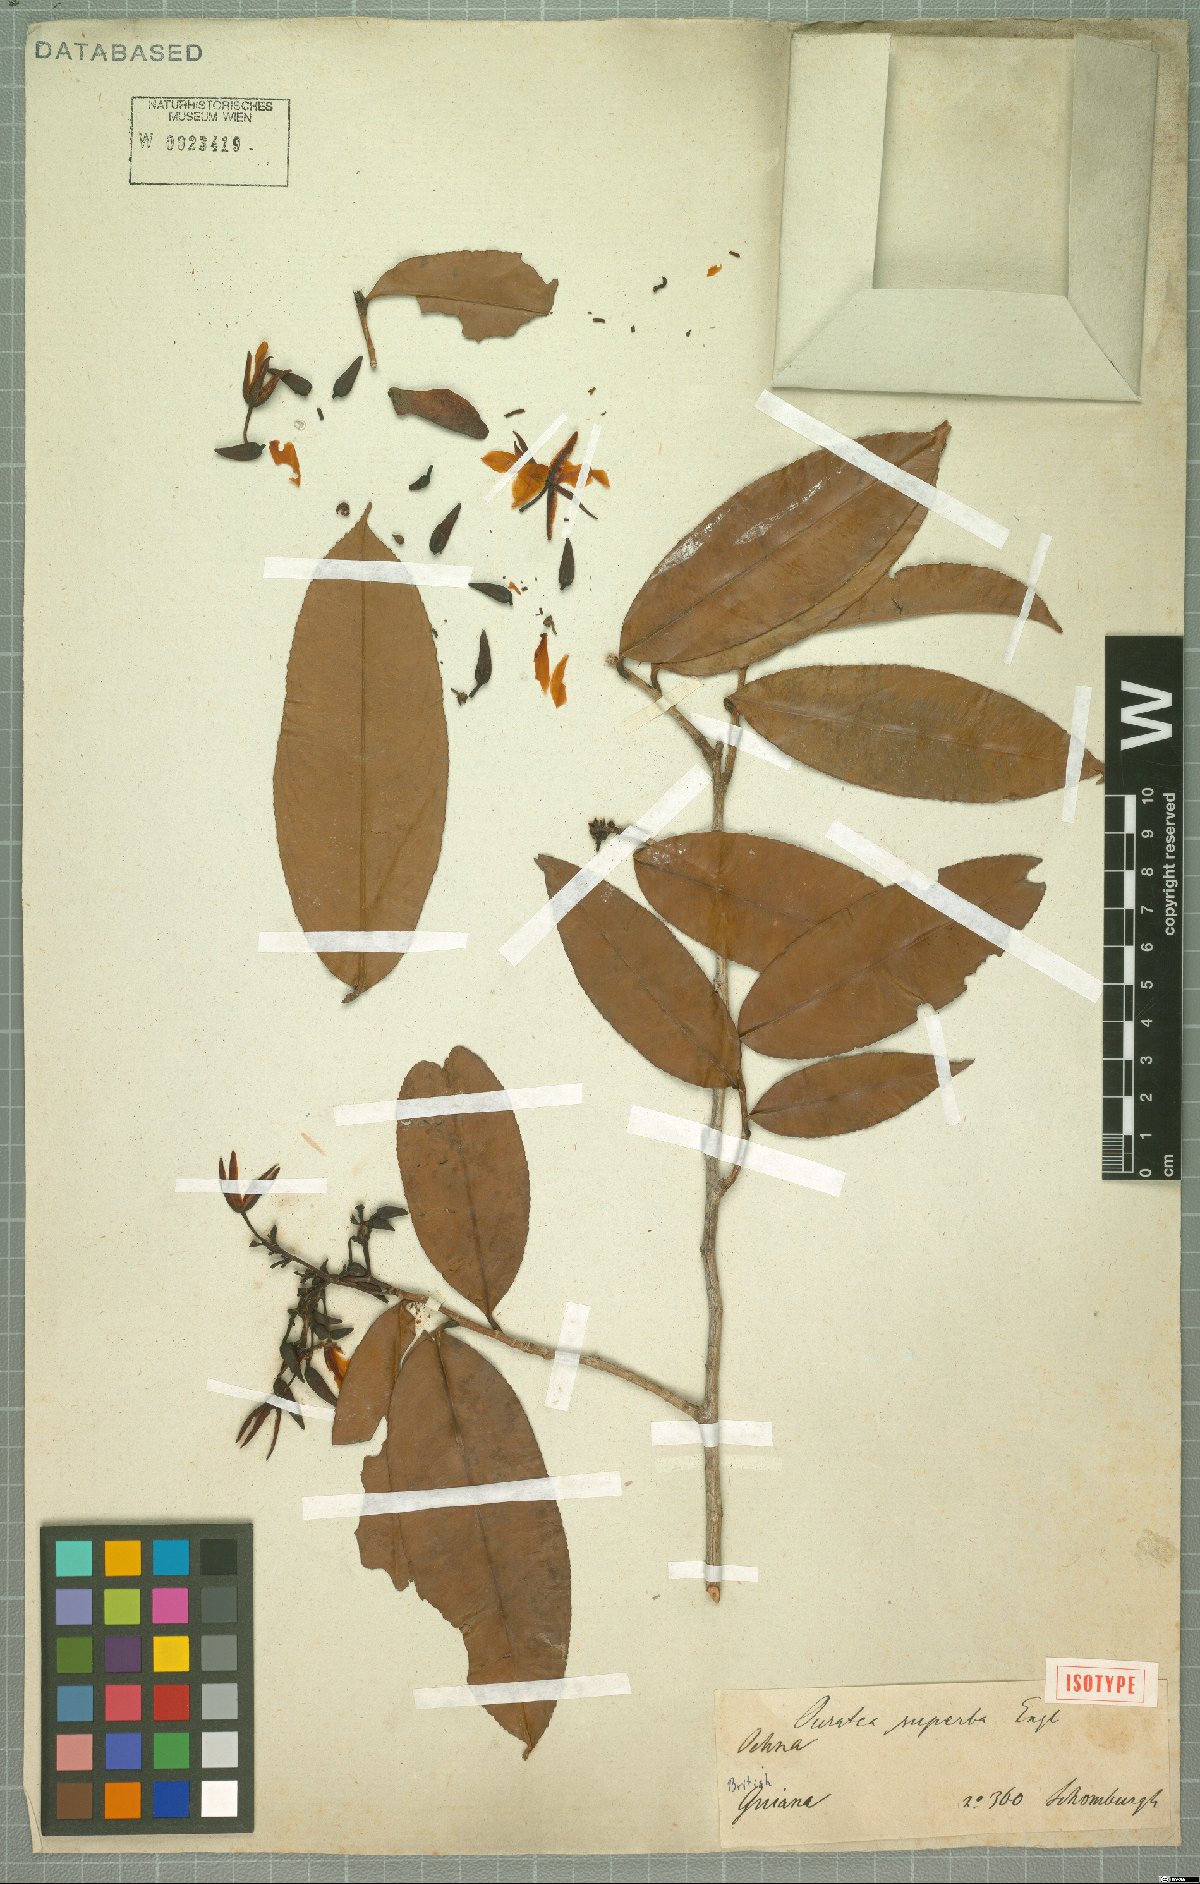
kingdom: Plantae
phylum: Tracheophyta
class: Magnoliopsida
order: Malpighiales
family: Ochnaceae
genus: Ouratea
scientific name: Ouratea superba
